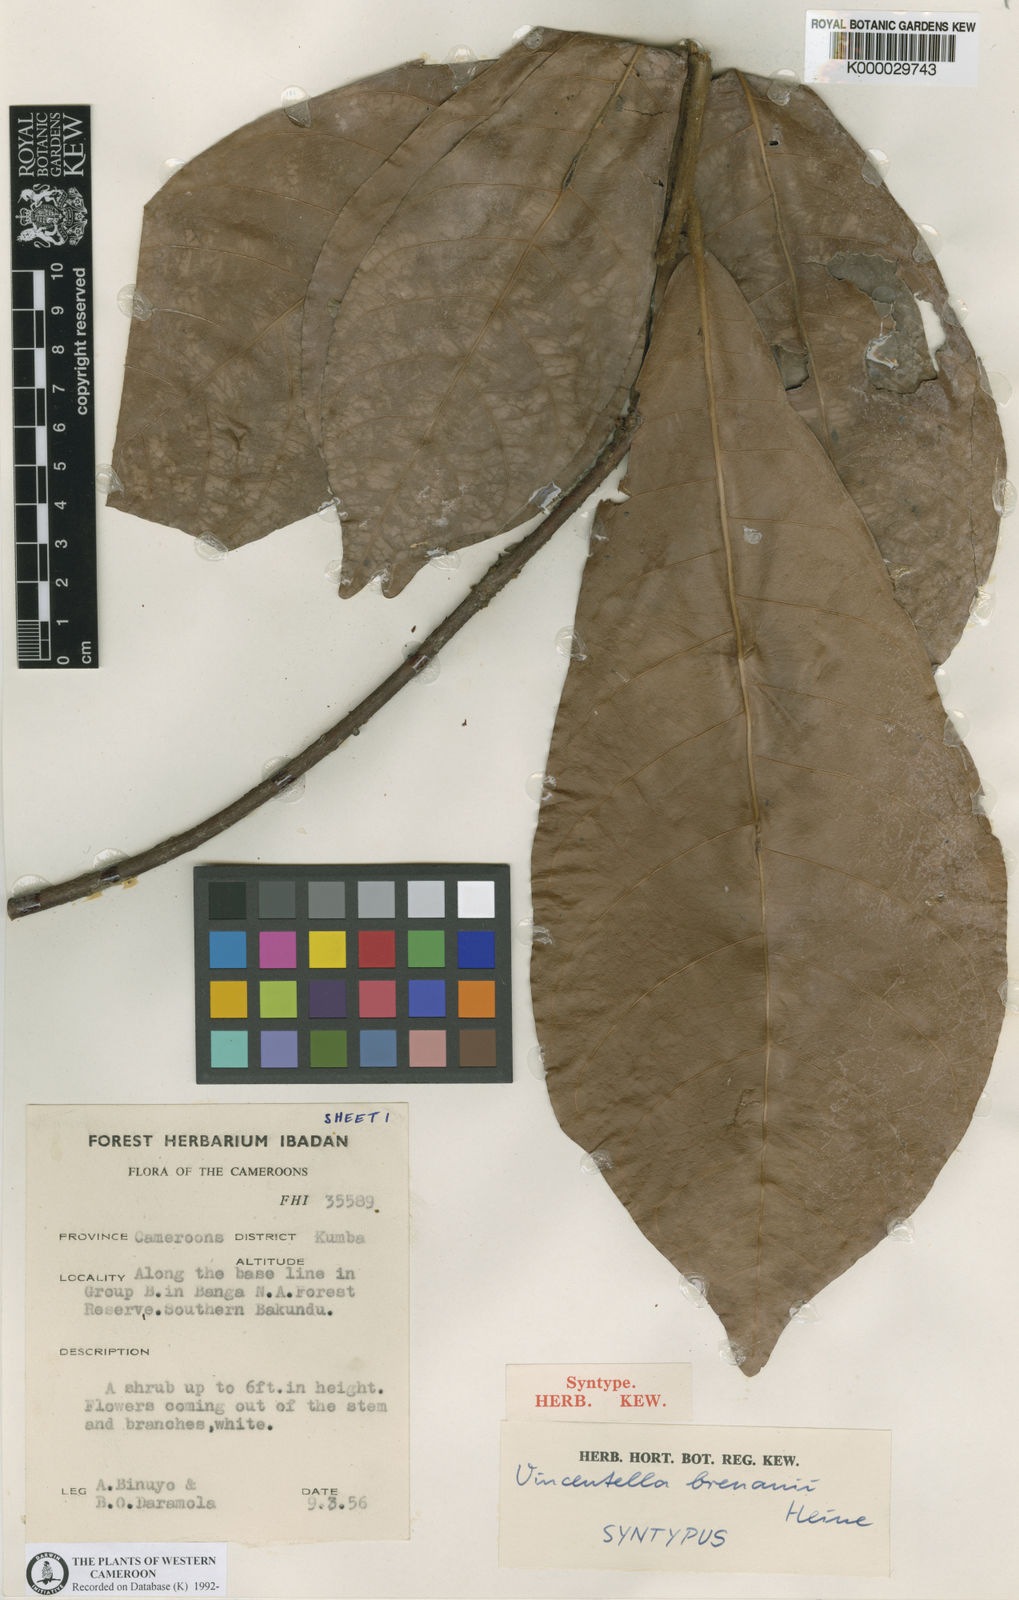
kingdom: Plantae
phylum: Tracheophyta
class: Magnoliopsida
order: Ericales
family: Sapotaceae
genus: Synsepalum
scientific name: Synsepalum brenanii
